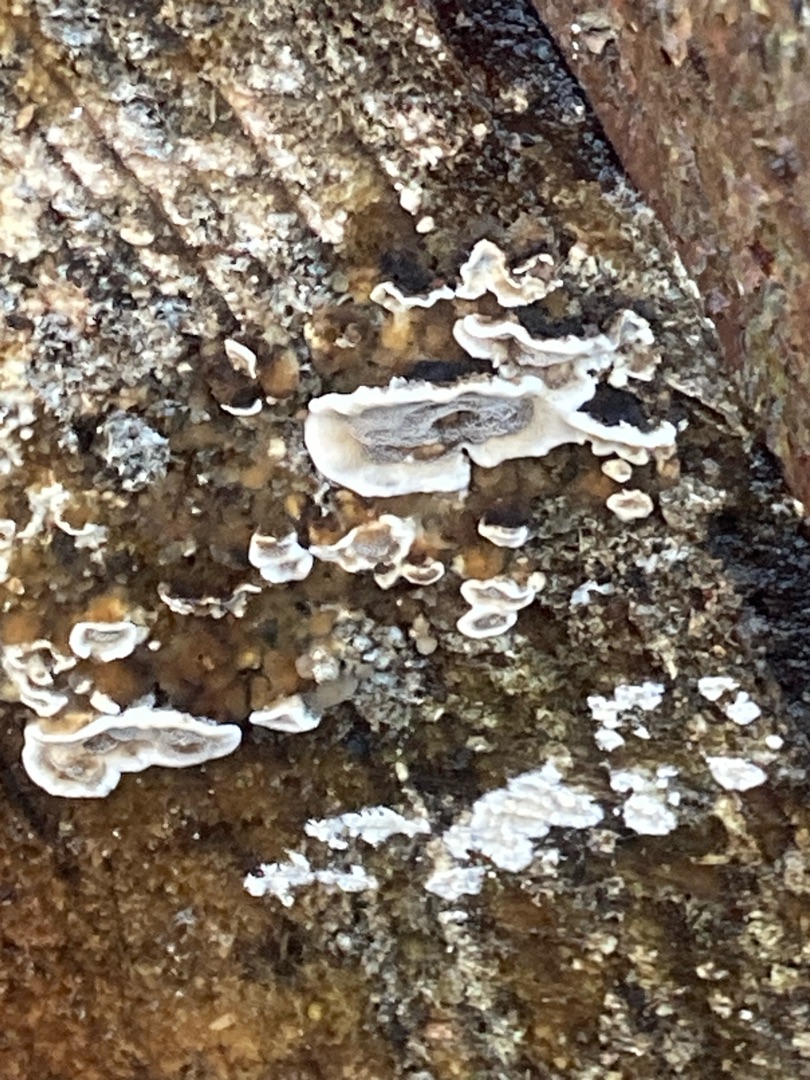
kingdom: Fungi
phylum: Basidiomycota
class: Agaricomycetes
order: Polyporales
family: Phanerochaetaceae
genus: Bjerkandera
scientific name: Bjerkandera adusta
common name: Sveden sodporesvamp
